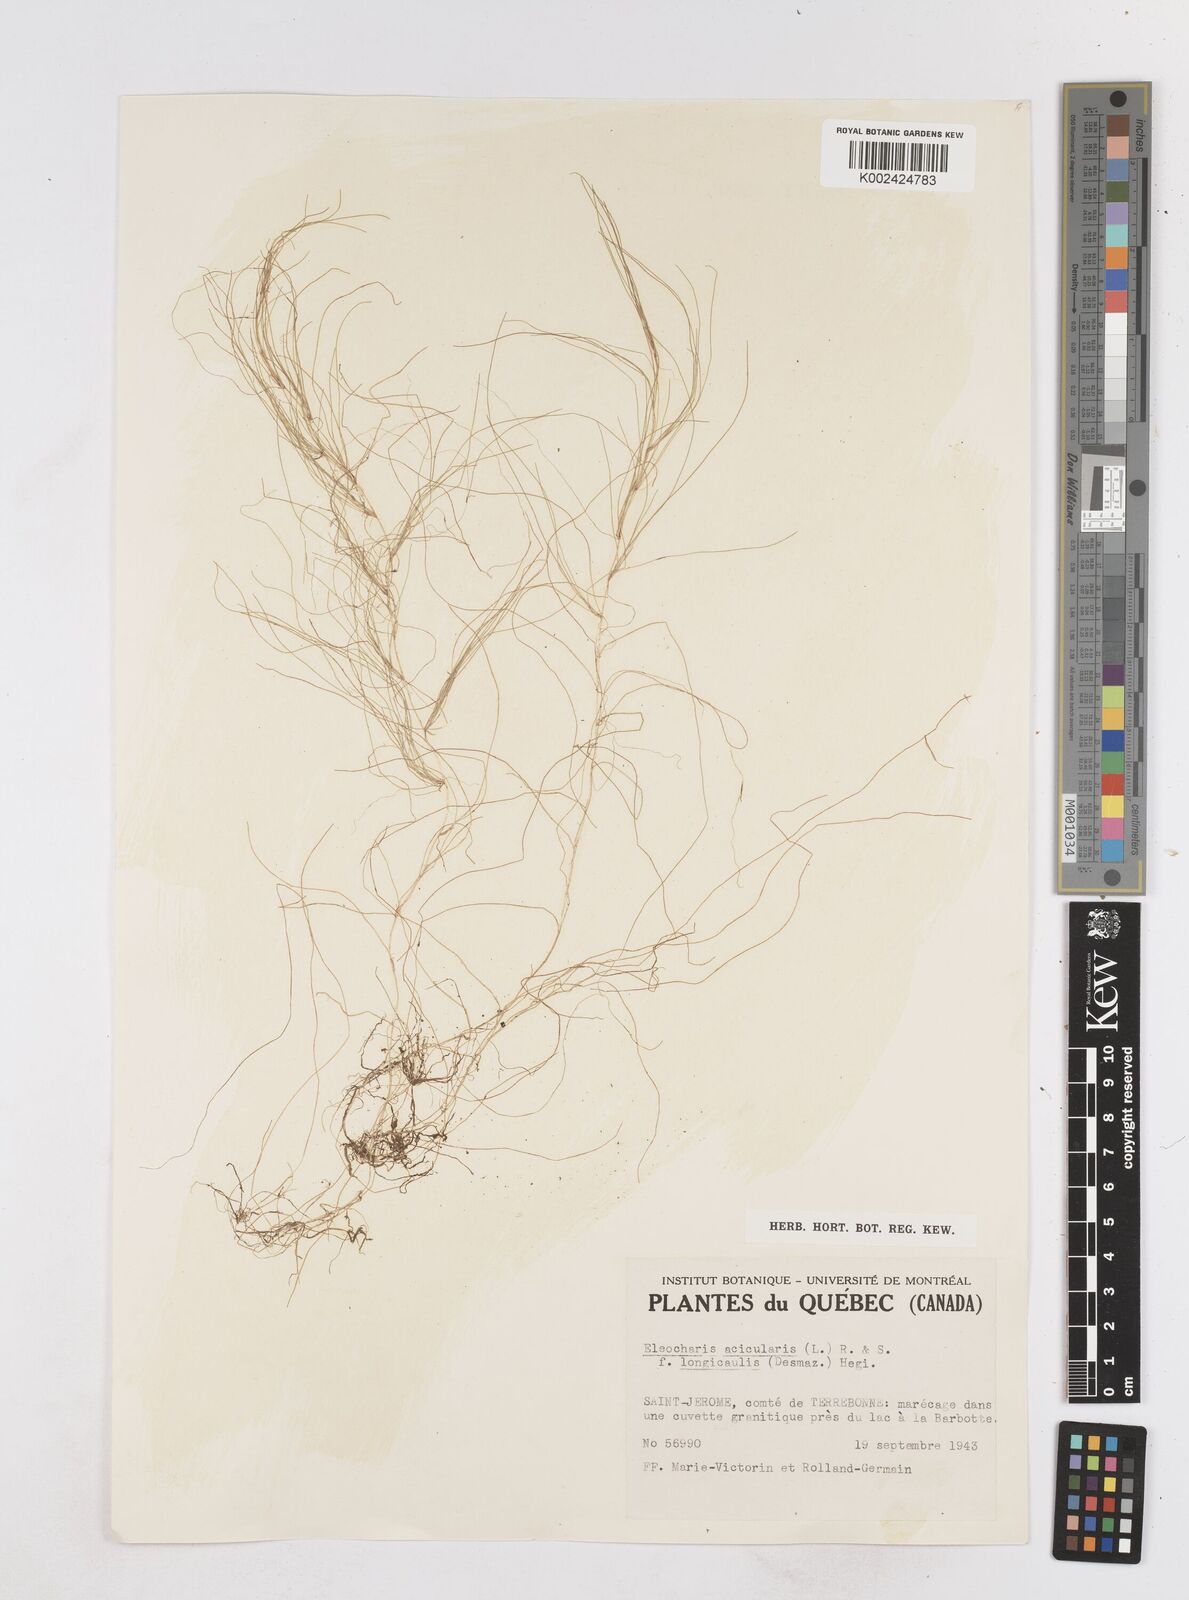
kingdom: Plantae
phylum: Tracheophyta
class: Liliopsida
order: Poales
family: Cyperaceae
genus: Eleocharis
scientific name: Eleocharis acicularis
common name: Needle spike-rush
